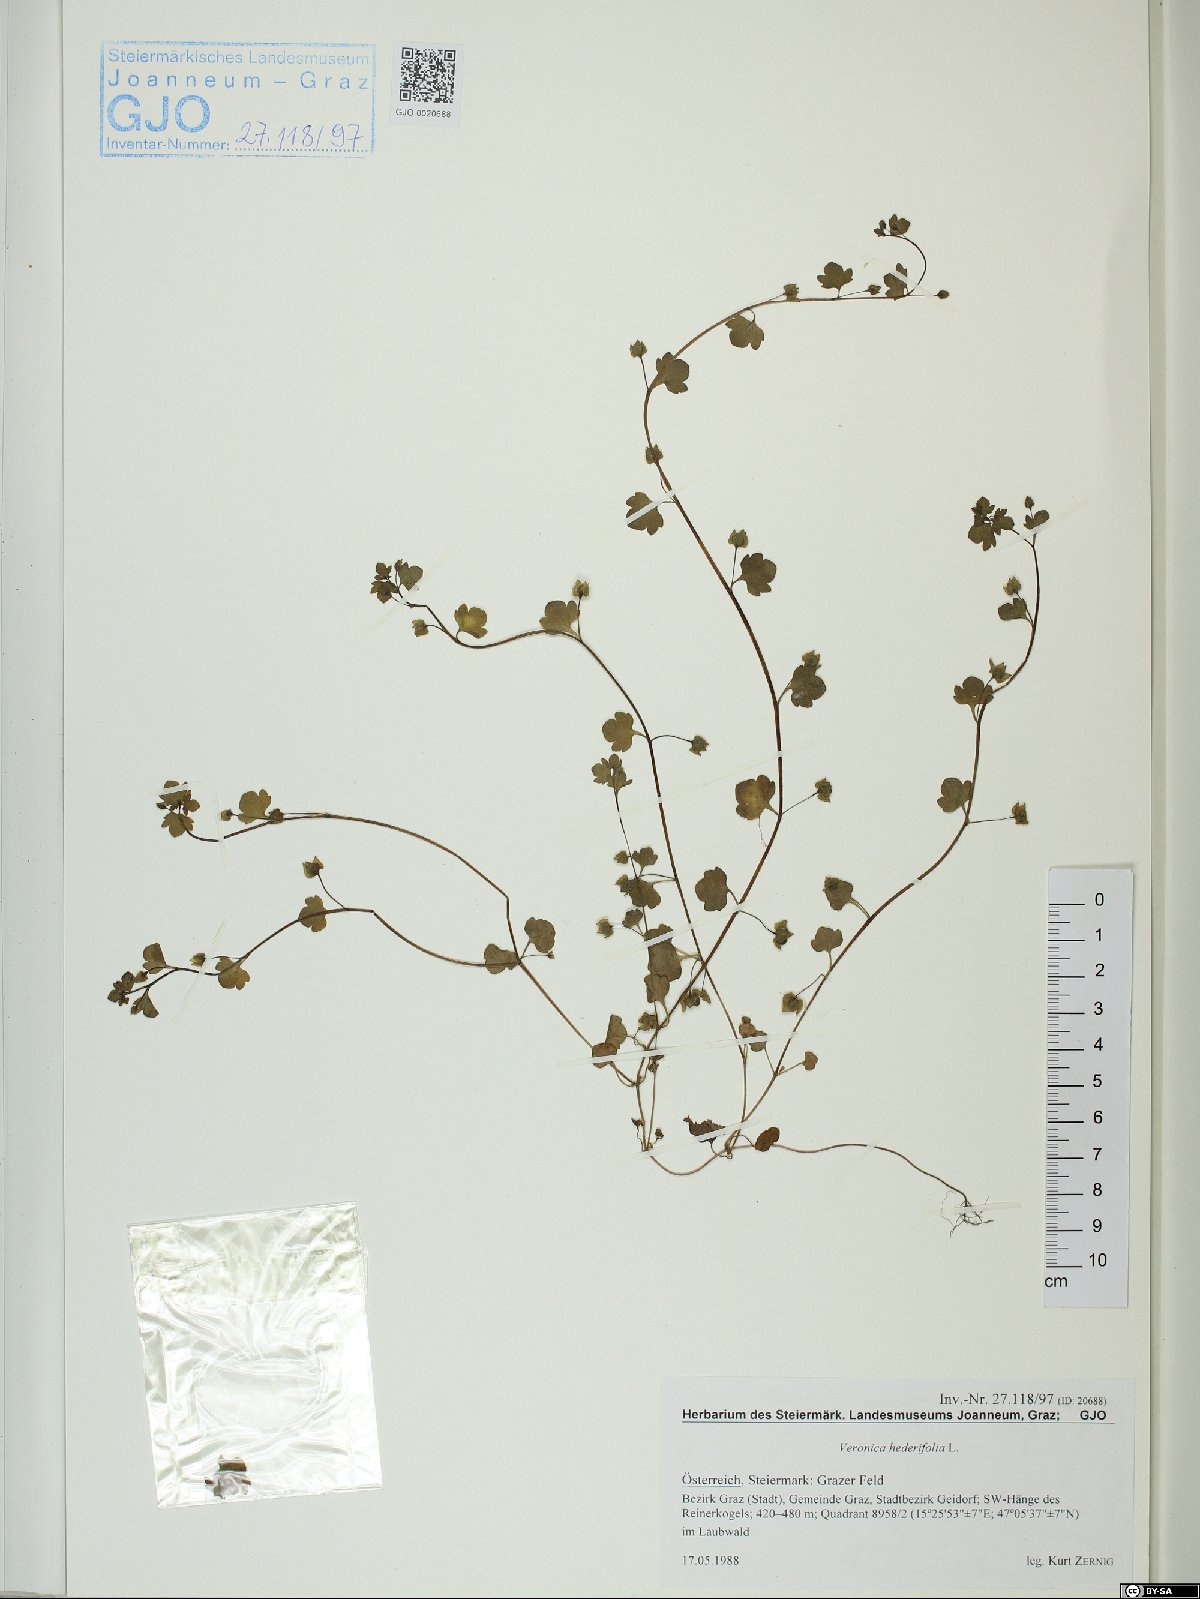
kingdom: Plantae
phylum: Tracheophyta
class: Magnoliopsida
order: Lamiales
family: Plantaginaceae
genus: Veronica
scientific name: Veronica hederifolia
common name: Ivy-leaved speedwell
